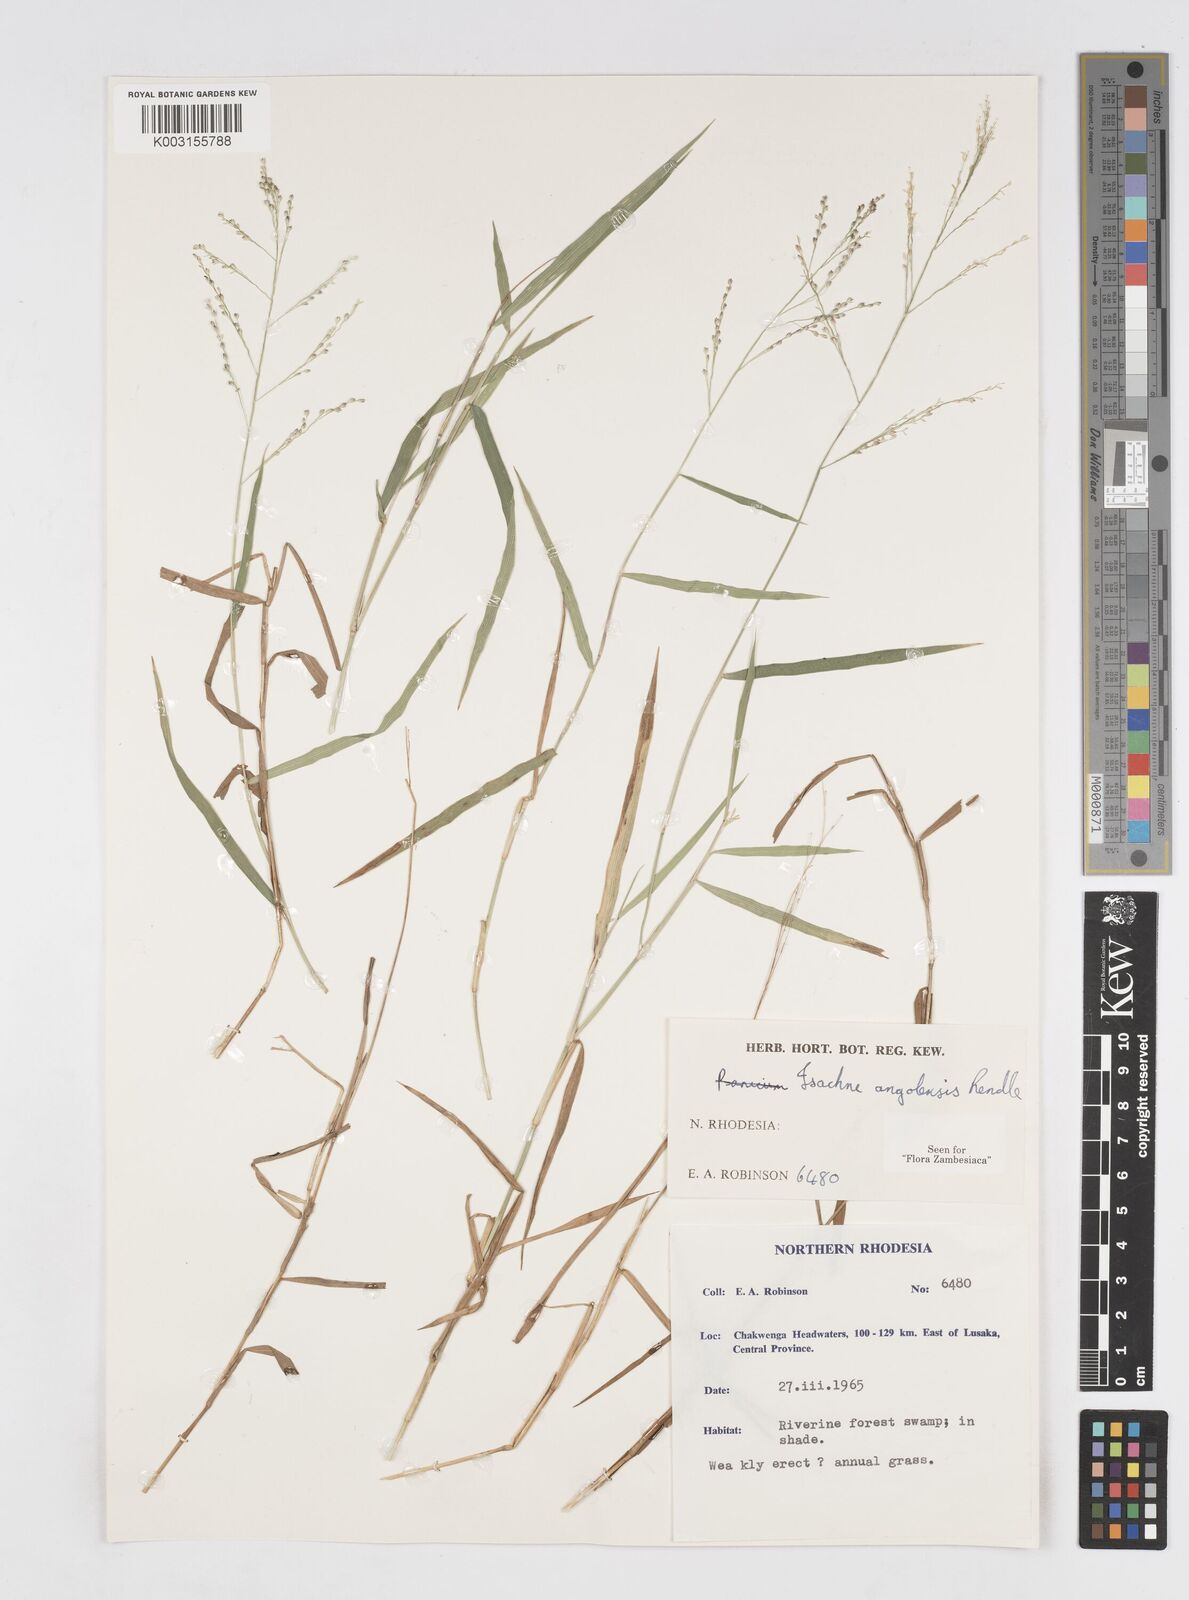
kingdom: Plantae
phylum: Tracheophyta
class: Liliopsida
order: Poales
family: Poaceae
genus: Isachne
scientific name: Isachne angolensis
